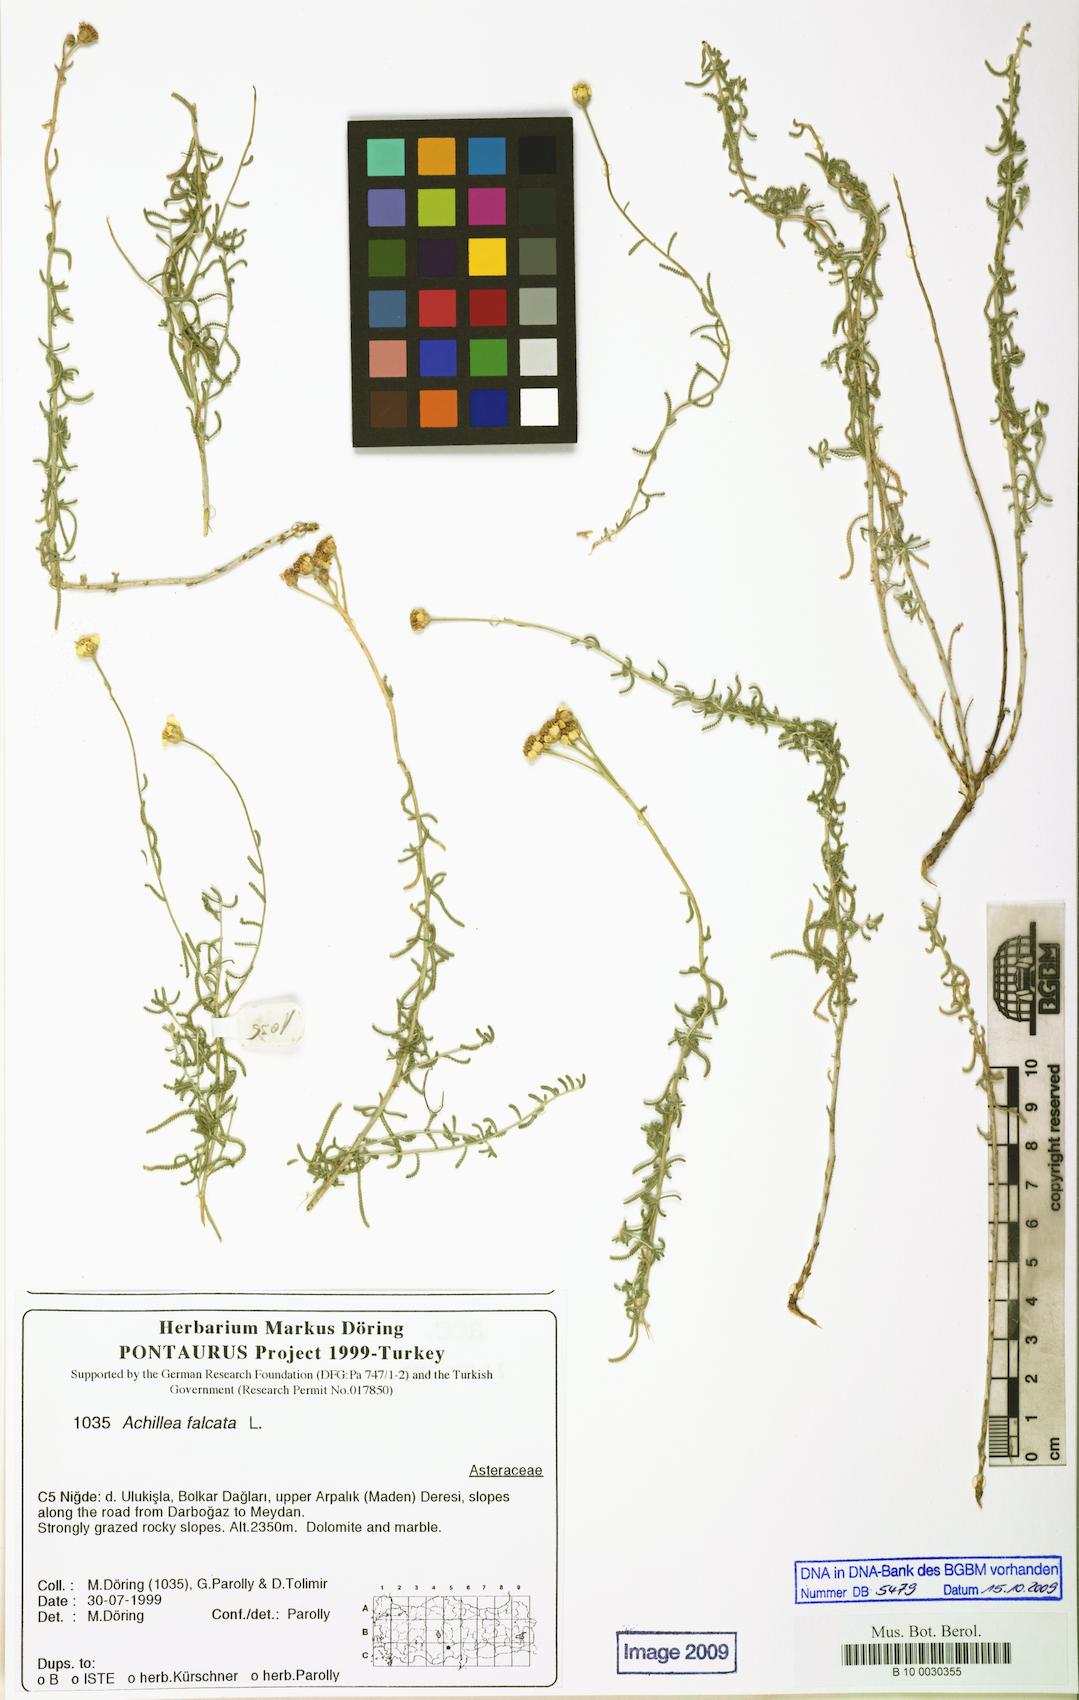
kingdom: Plantae
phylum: Tracheophyta
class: Magnoliopsida
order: Asterales
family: Asteraceae
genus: Achillea
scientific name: Achillea falcata
